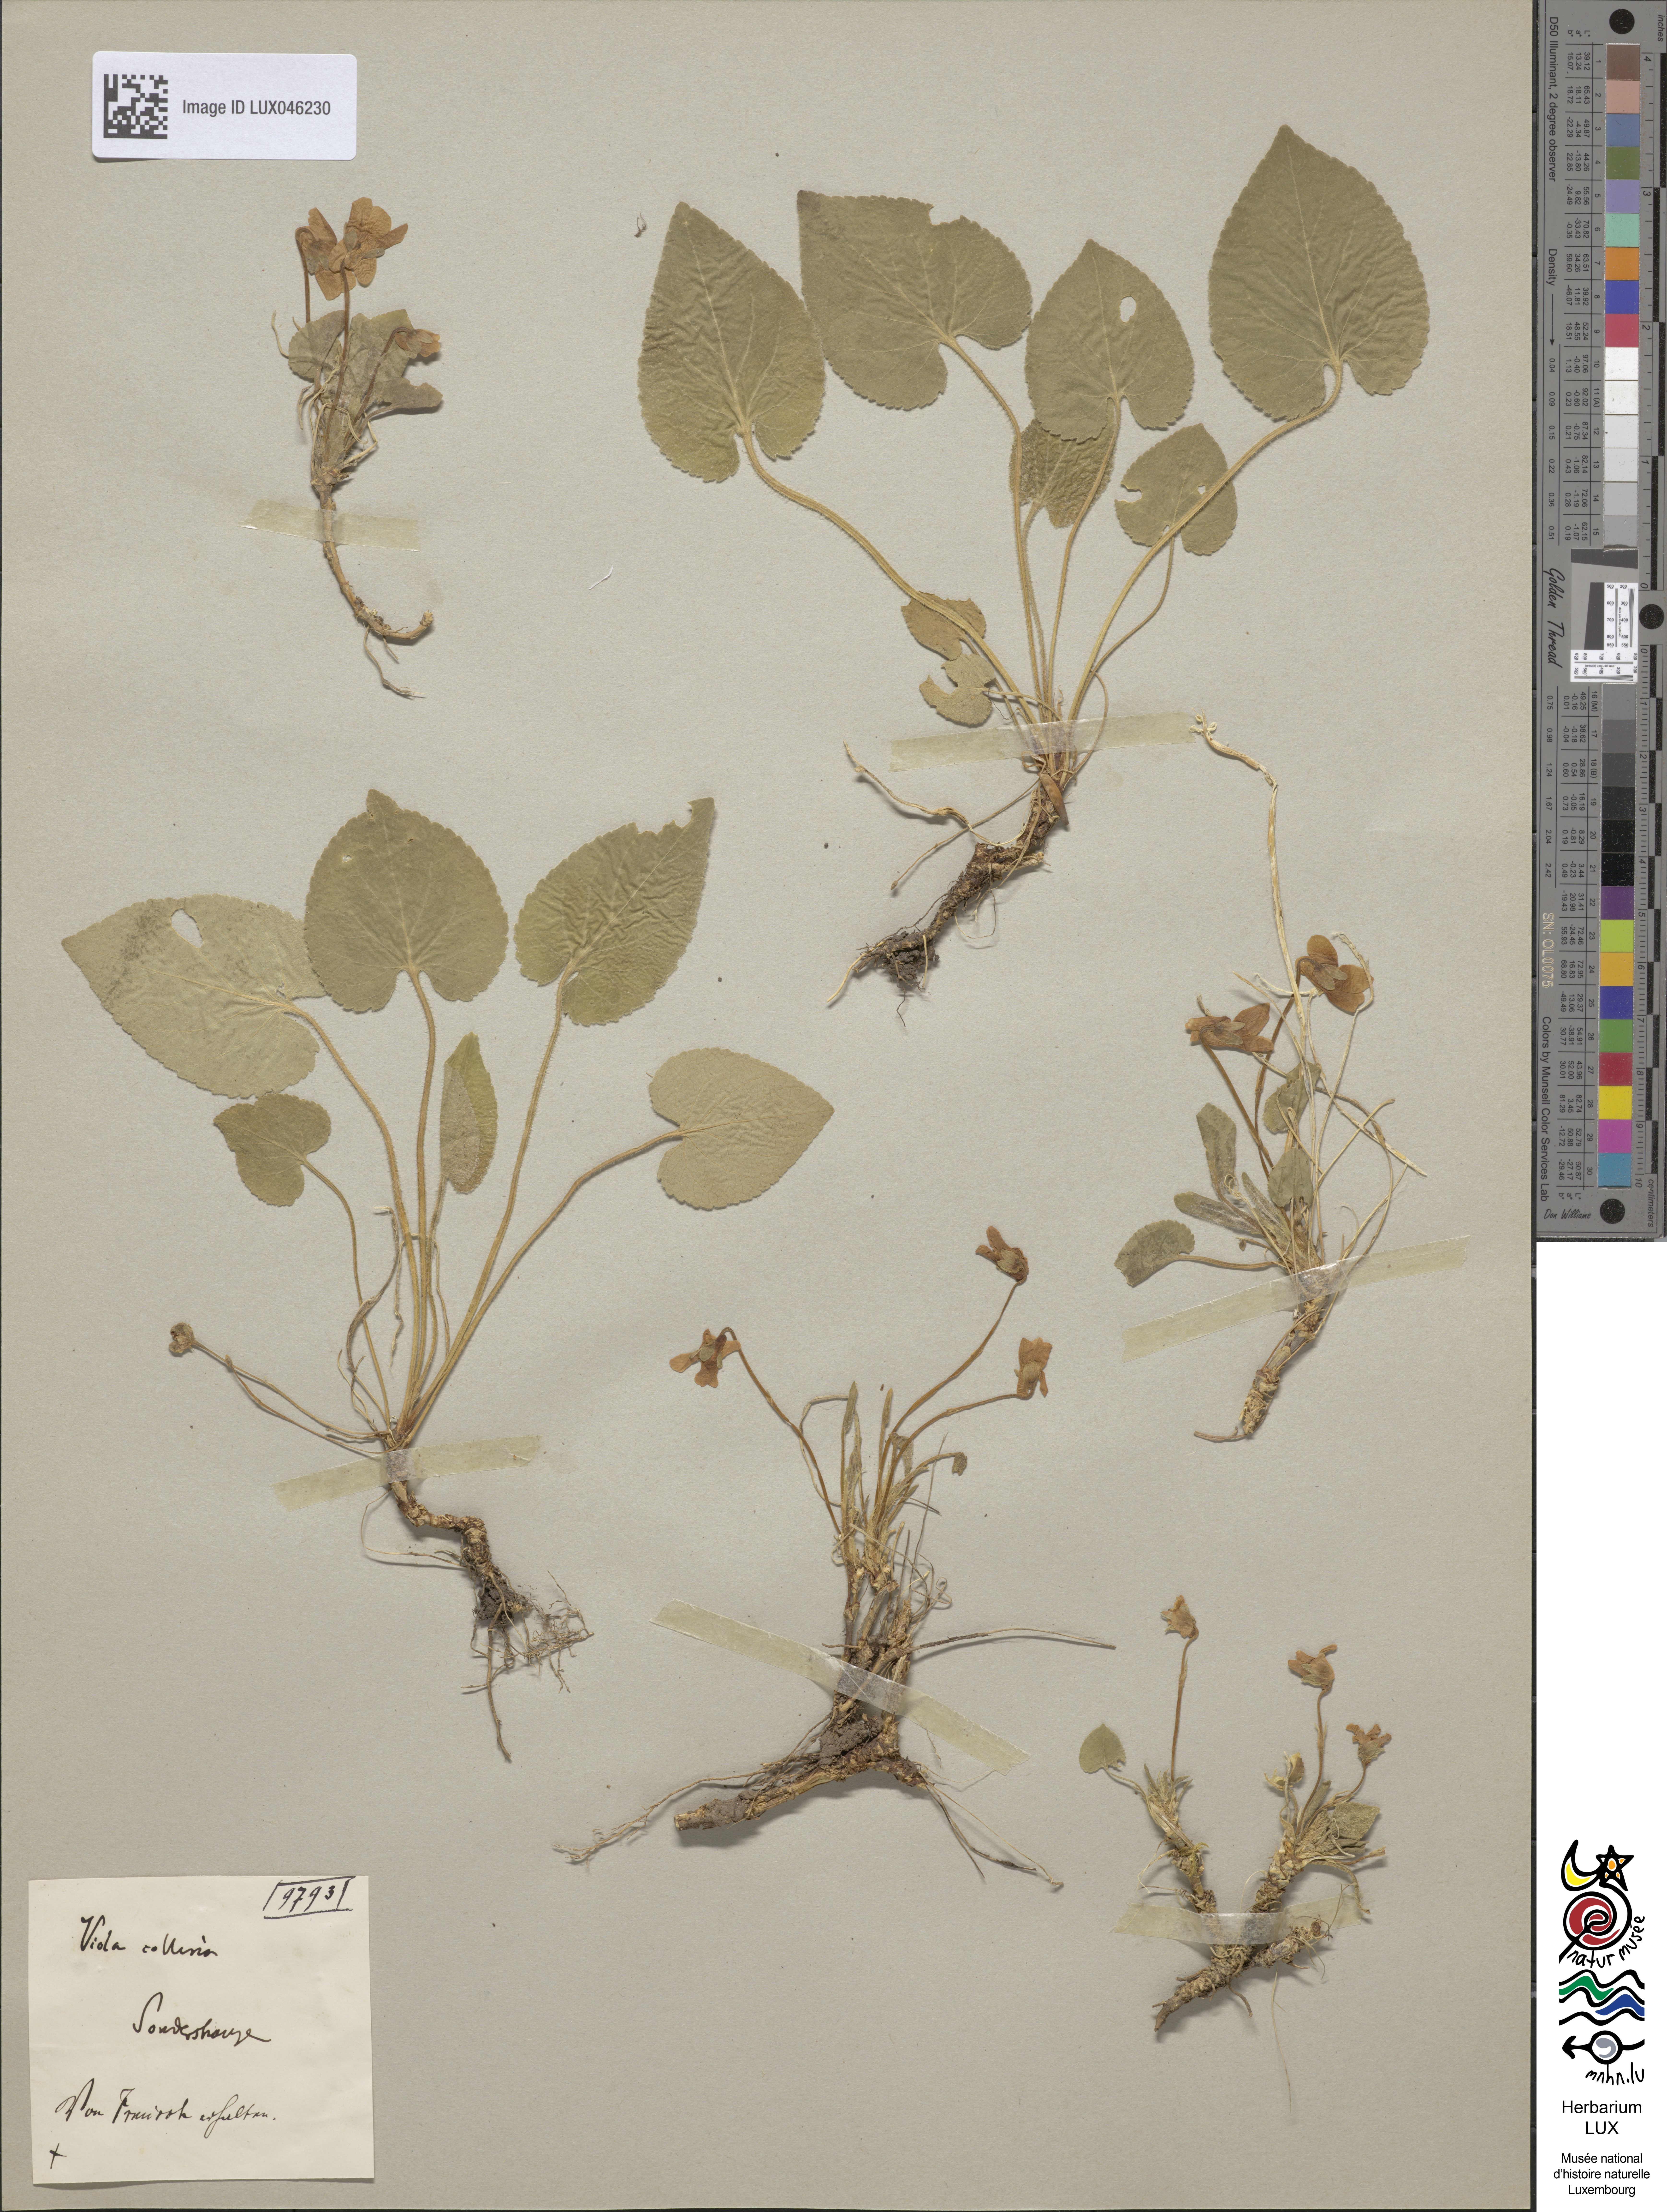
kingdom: Plantae
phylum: Tracheophyta
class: Magnoliopsida
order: Malpighiales
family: Violaceae
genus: Viola
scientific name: Viola collina
